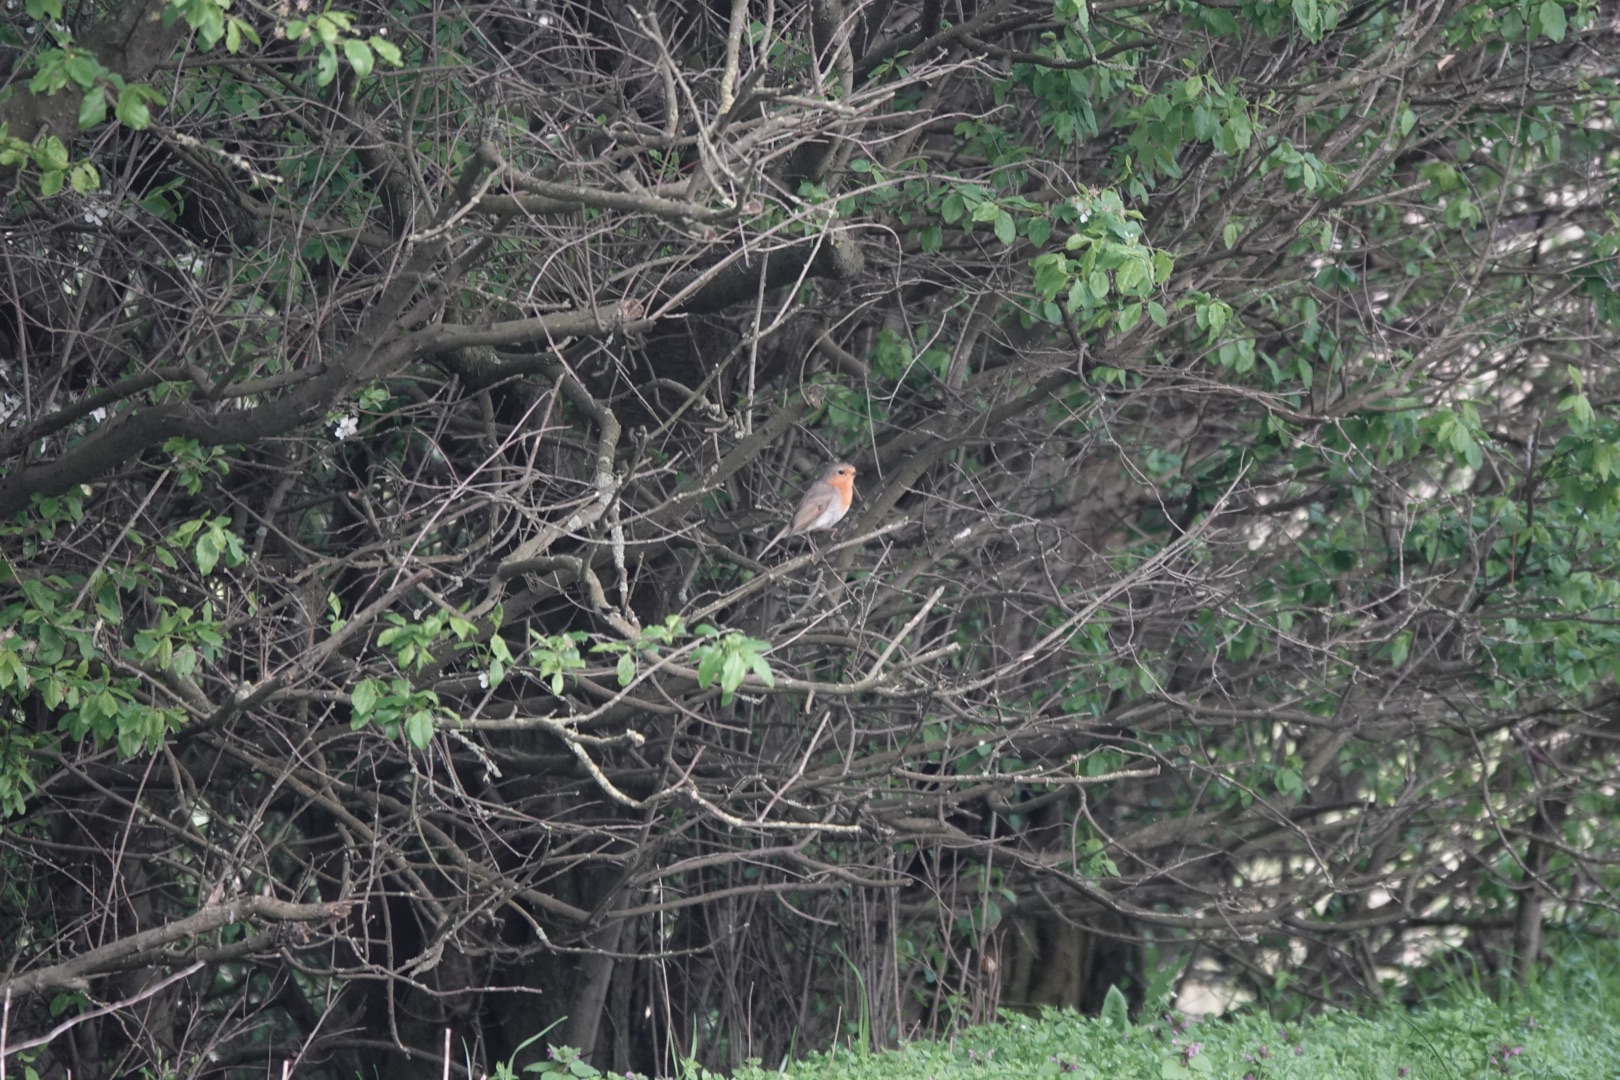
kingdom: Animalia
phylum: Chordata
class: Aves
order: Passeriformes
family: Muscicapidae
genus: Erithacus
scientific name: Erithacus rubecula
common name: Rødhals/rødkælk
